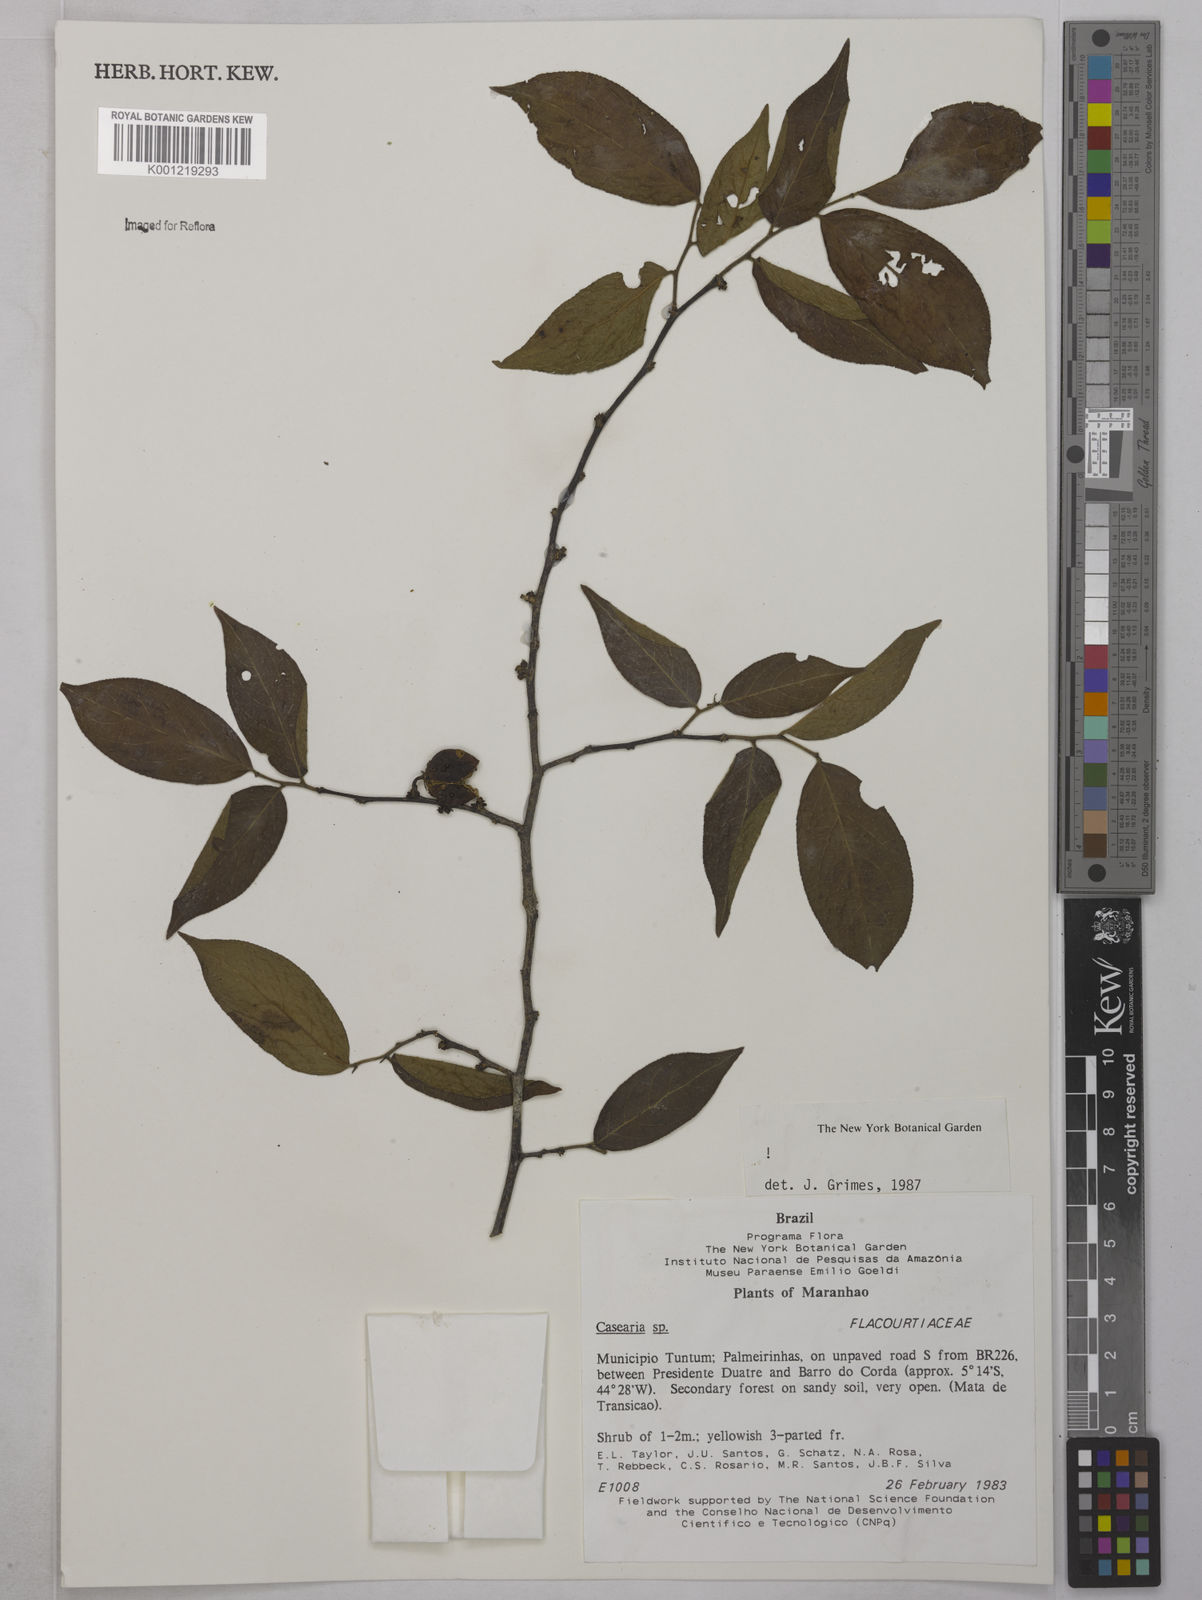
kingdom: Plantae
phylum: Tracheophyta
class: Magnoliopsida
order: Malpighiales
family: Salicaceae
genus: Casearia
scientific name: Casearia
